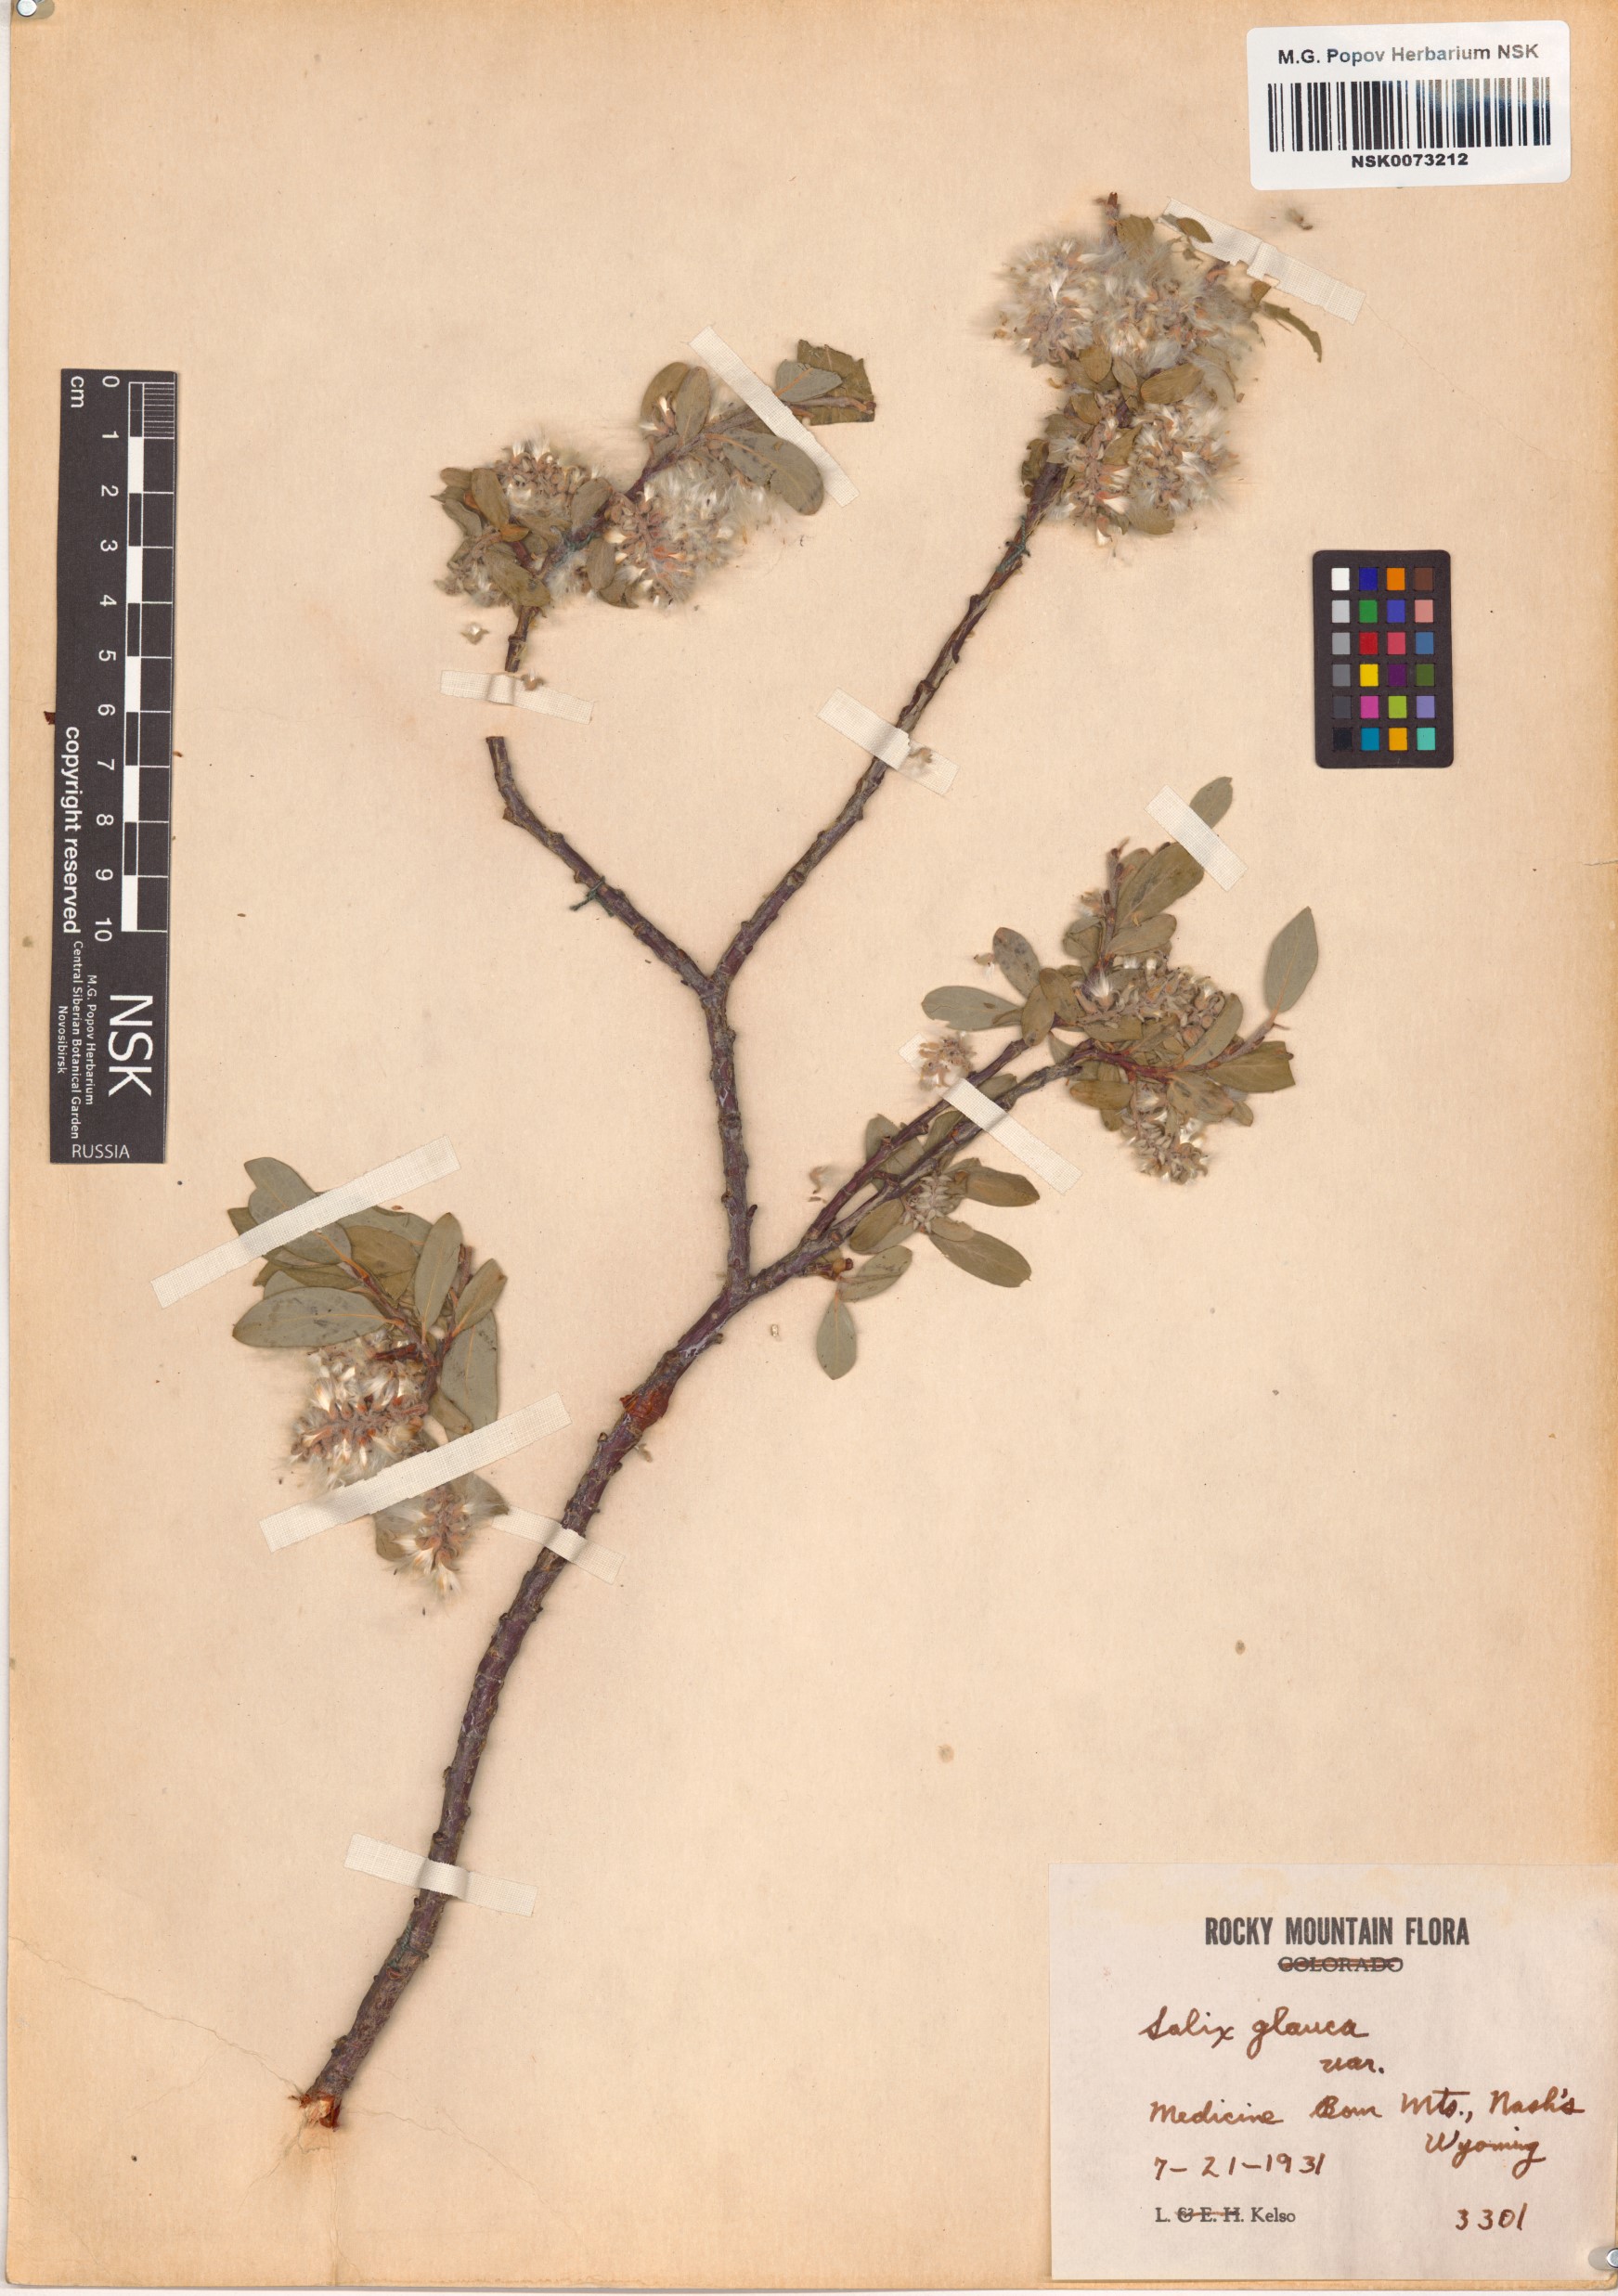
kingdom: Plantae
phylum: Tracheophyta
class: Magnoliopsida
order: Malpighiales
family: Salicaceae
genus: Salix
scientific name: Salix glauca
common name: Glaucous willow
